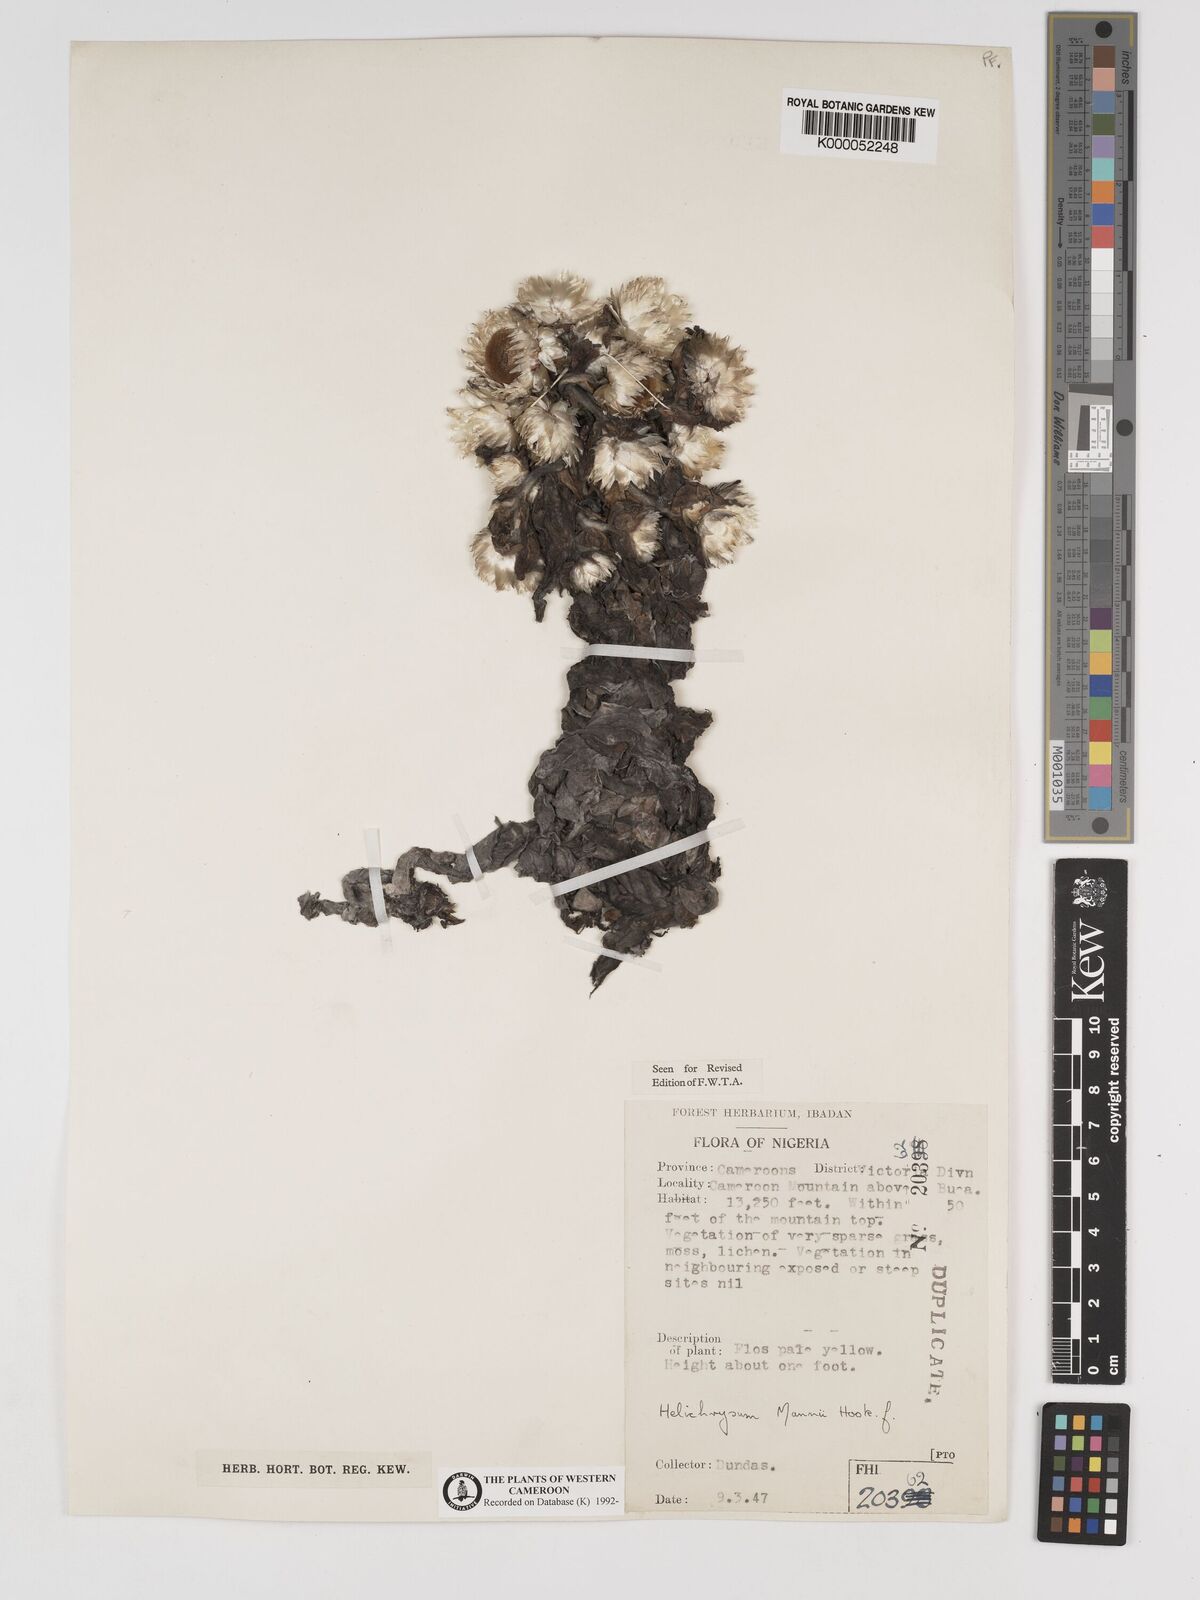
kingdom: Plantae
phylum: Tracheophyta
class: Magnoliopsida
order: Asterales
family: Asteraceae
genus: Helichrysum
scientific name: Helichrysum mannii
